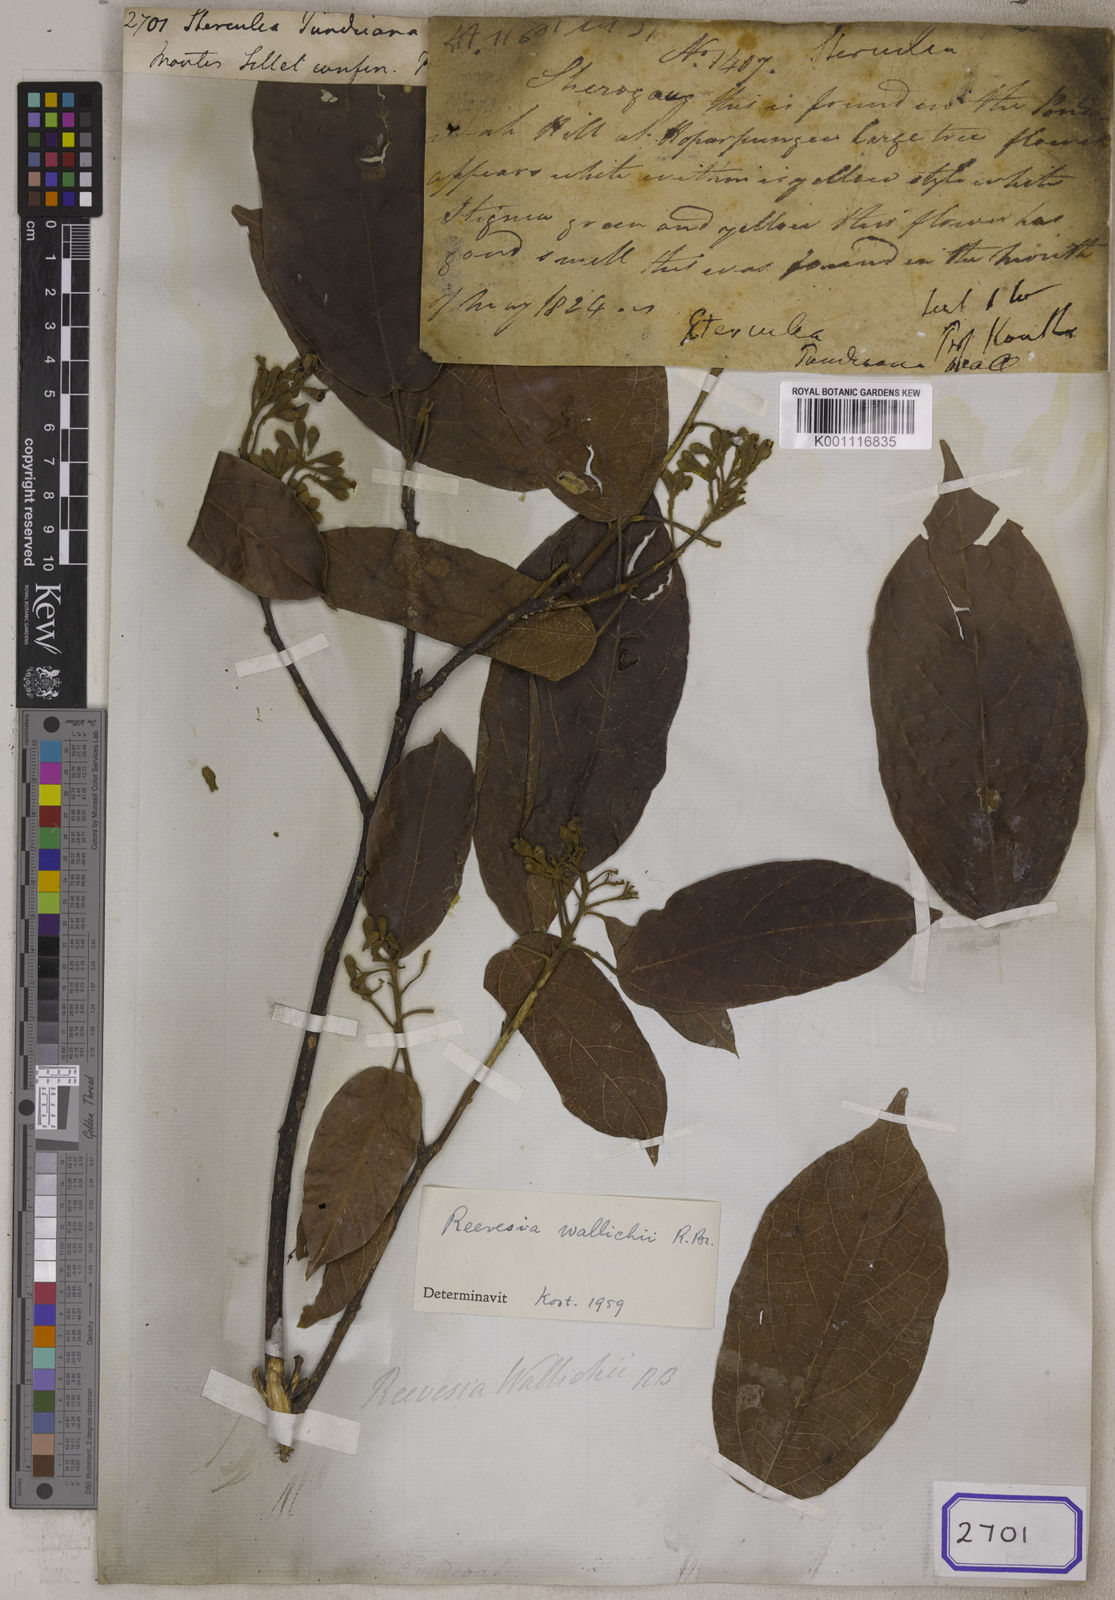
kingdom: Plantae
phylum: Tracheophyta
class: Magnoliopsida
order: Malvales
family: Malvaceae
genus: Reevesia
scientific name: Reevesia wallichii
